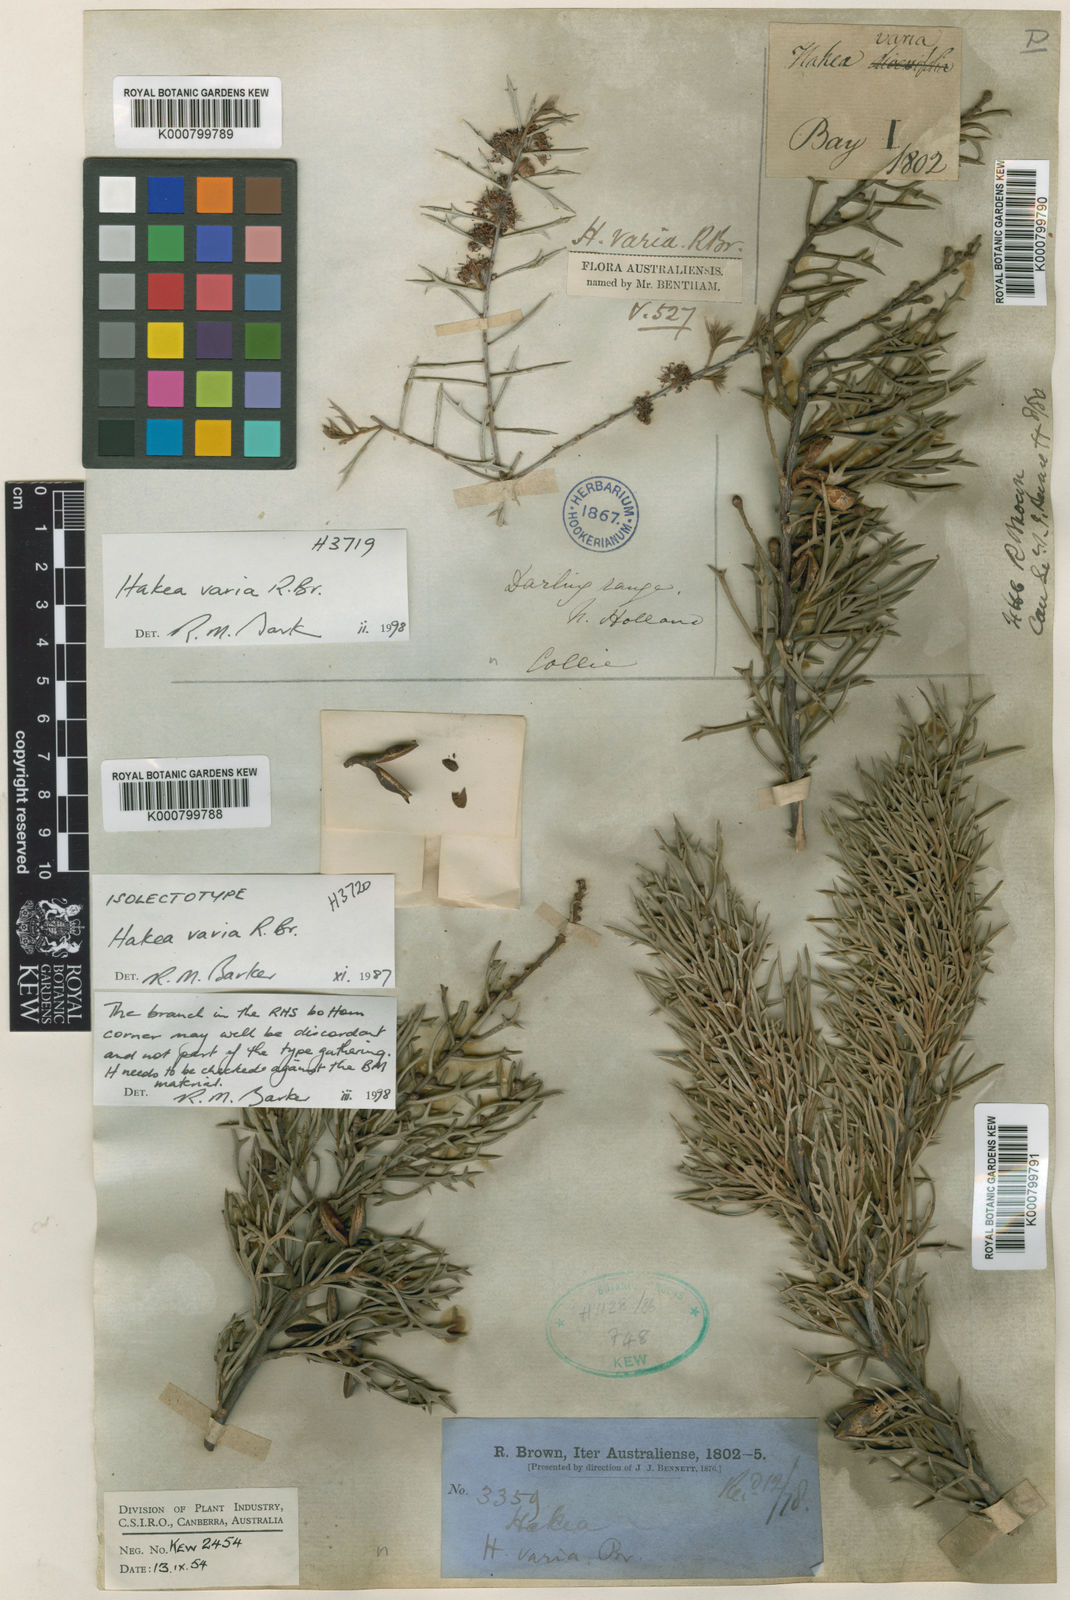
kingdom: Plantae
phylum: Tracheophyta
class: Magnoliopsida
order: Proteales
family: Proteaceae
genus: Hakea
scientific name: Hakea varia
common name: Variable-leaf hakea
